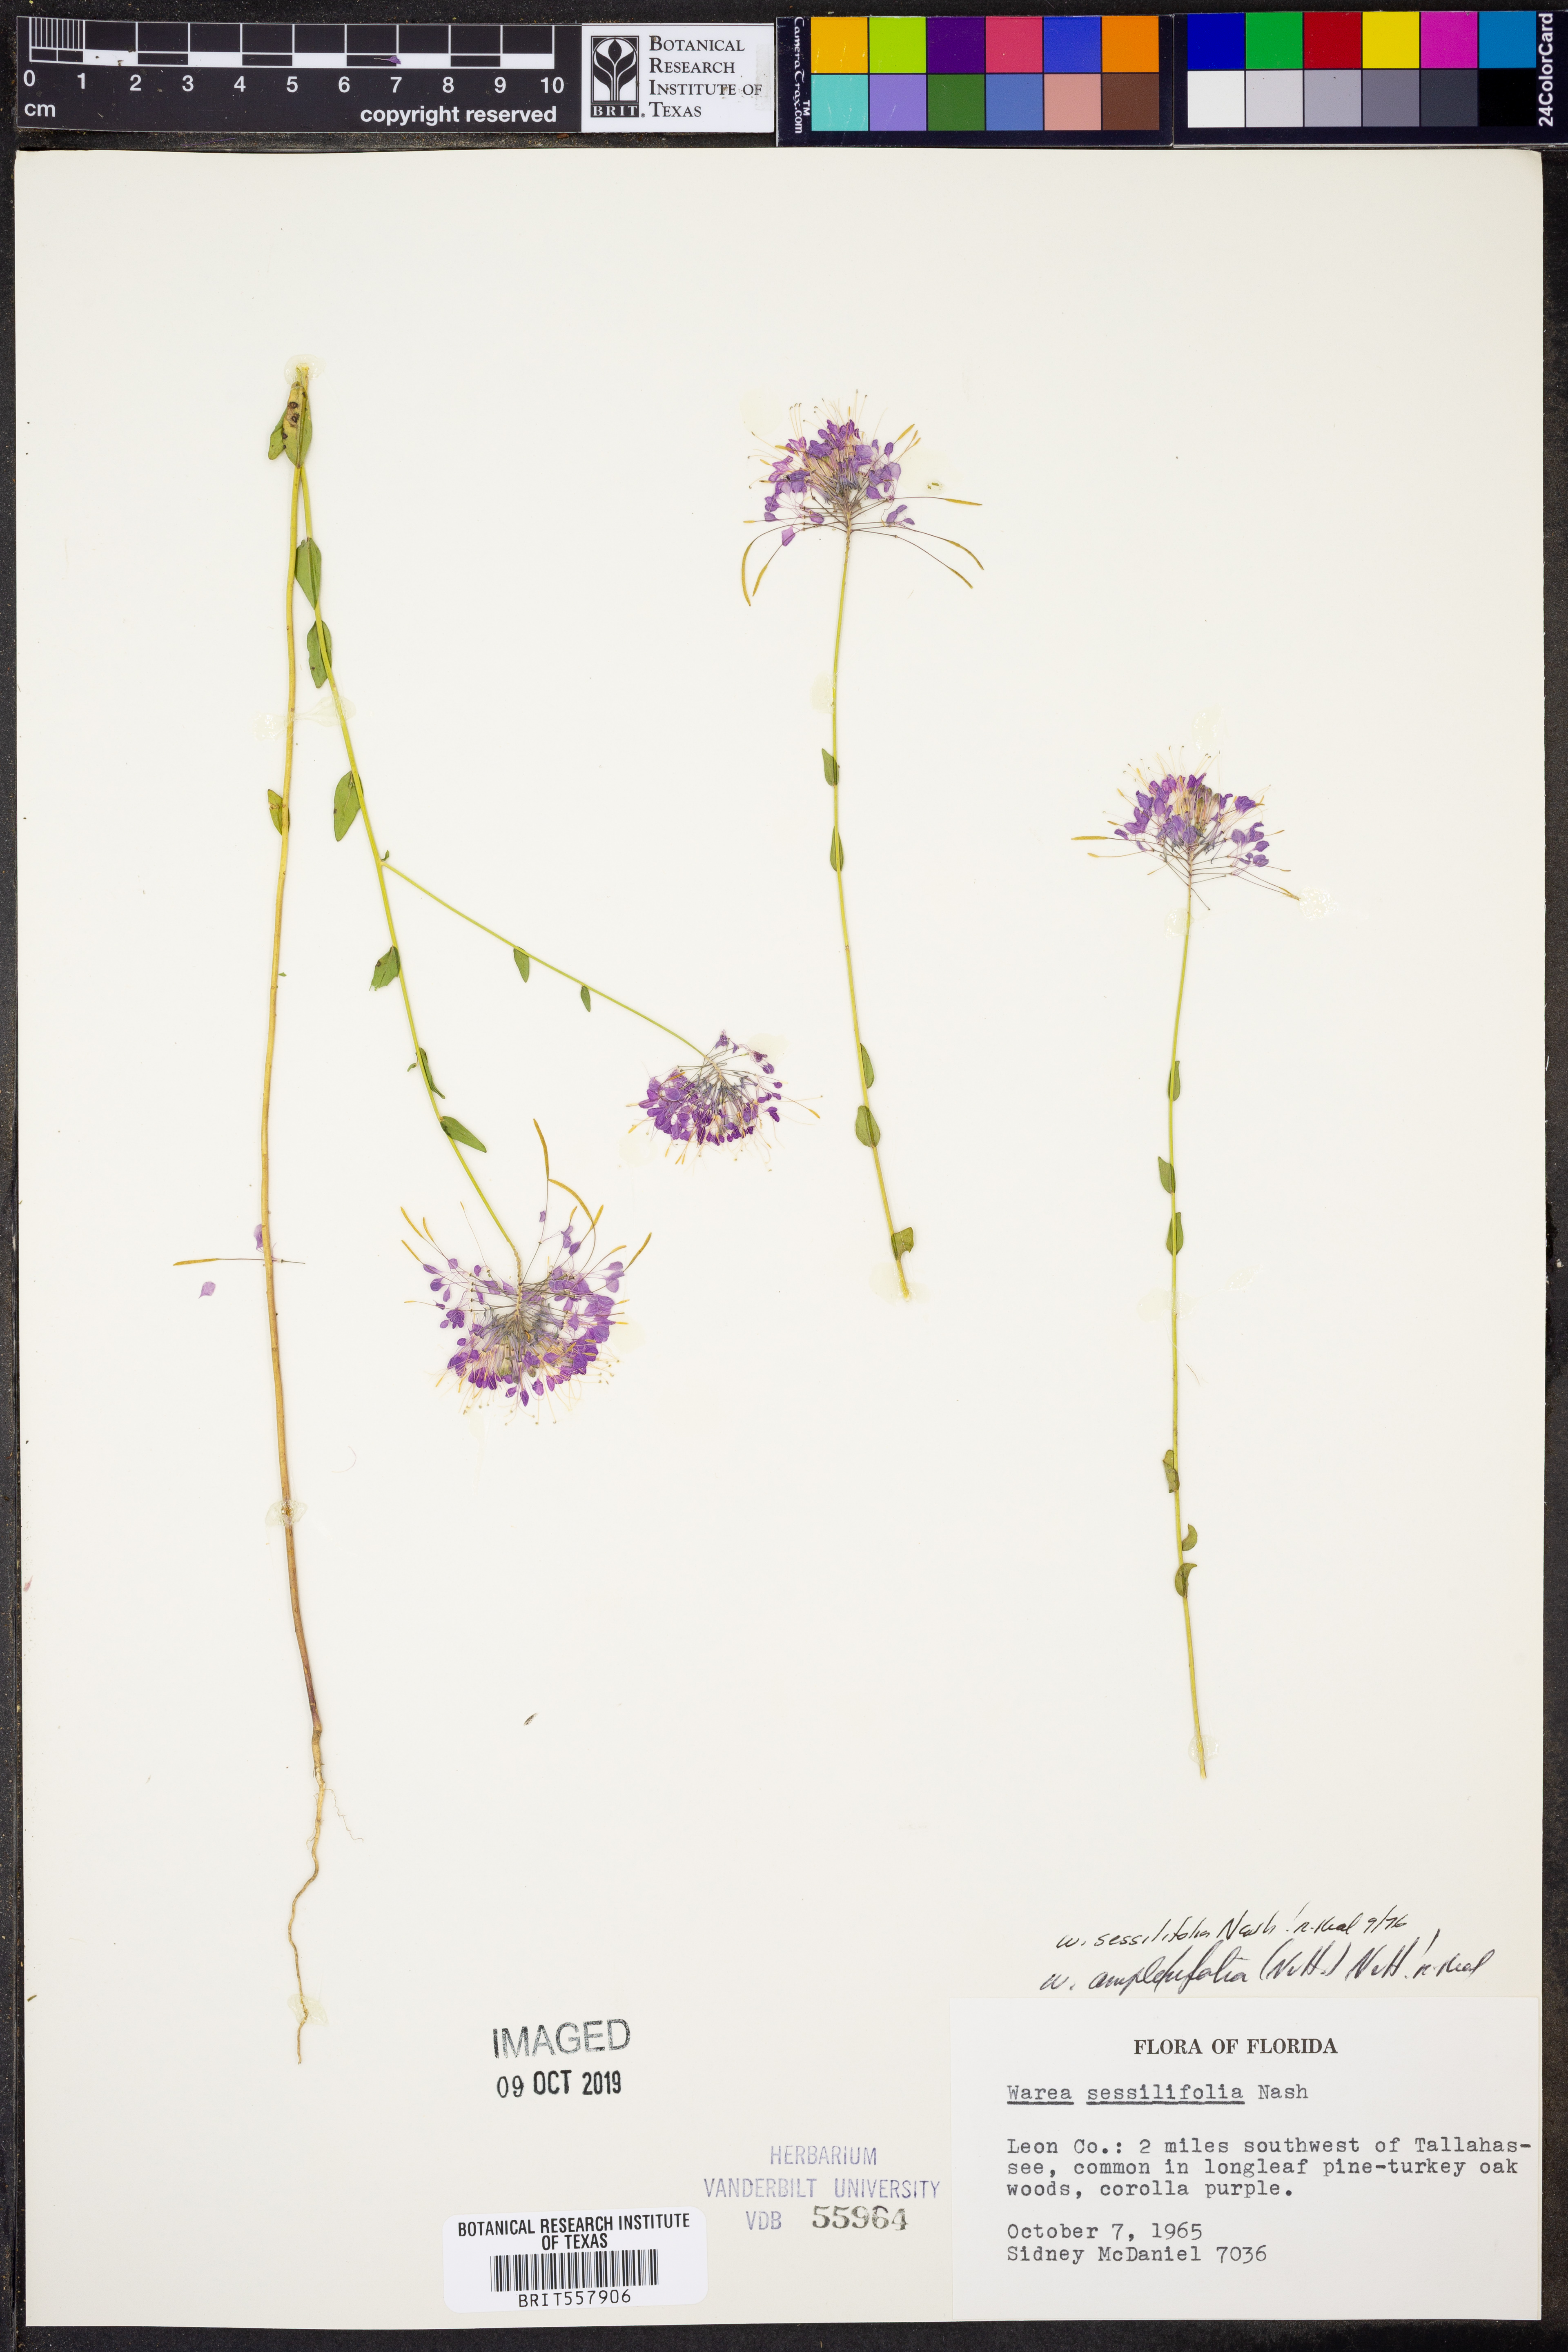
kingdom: Plantae
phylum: Tracheophyta
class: Magnoliopsida
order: Brassicales
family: Brassicaceae
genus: Warea
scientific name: Warea sessilifolia
